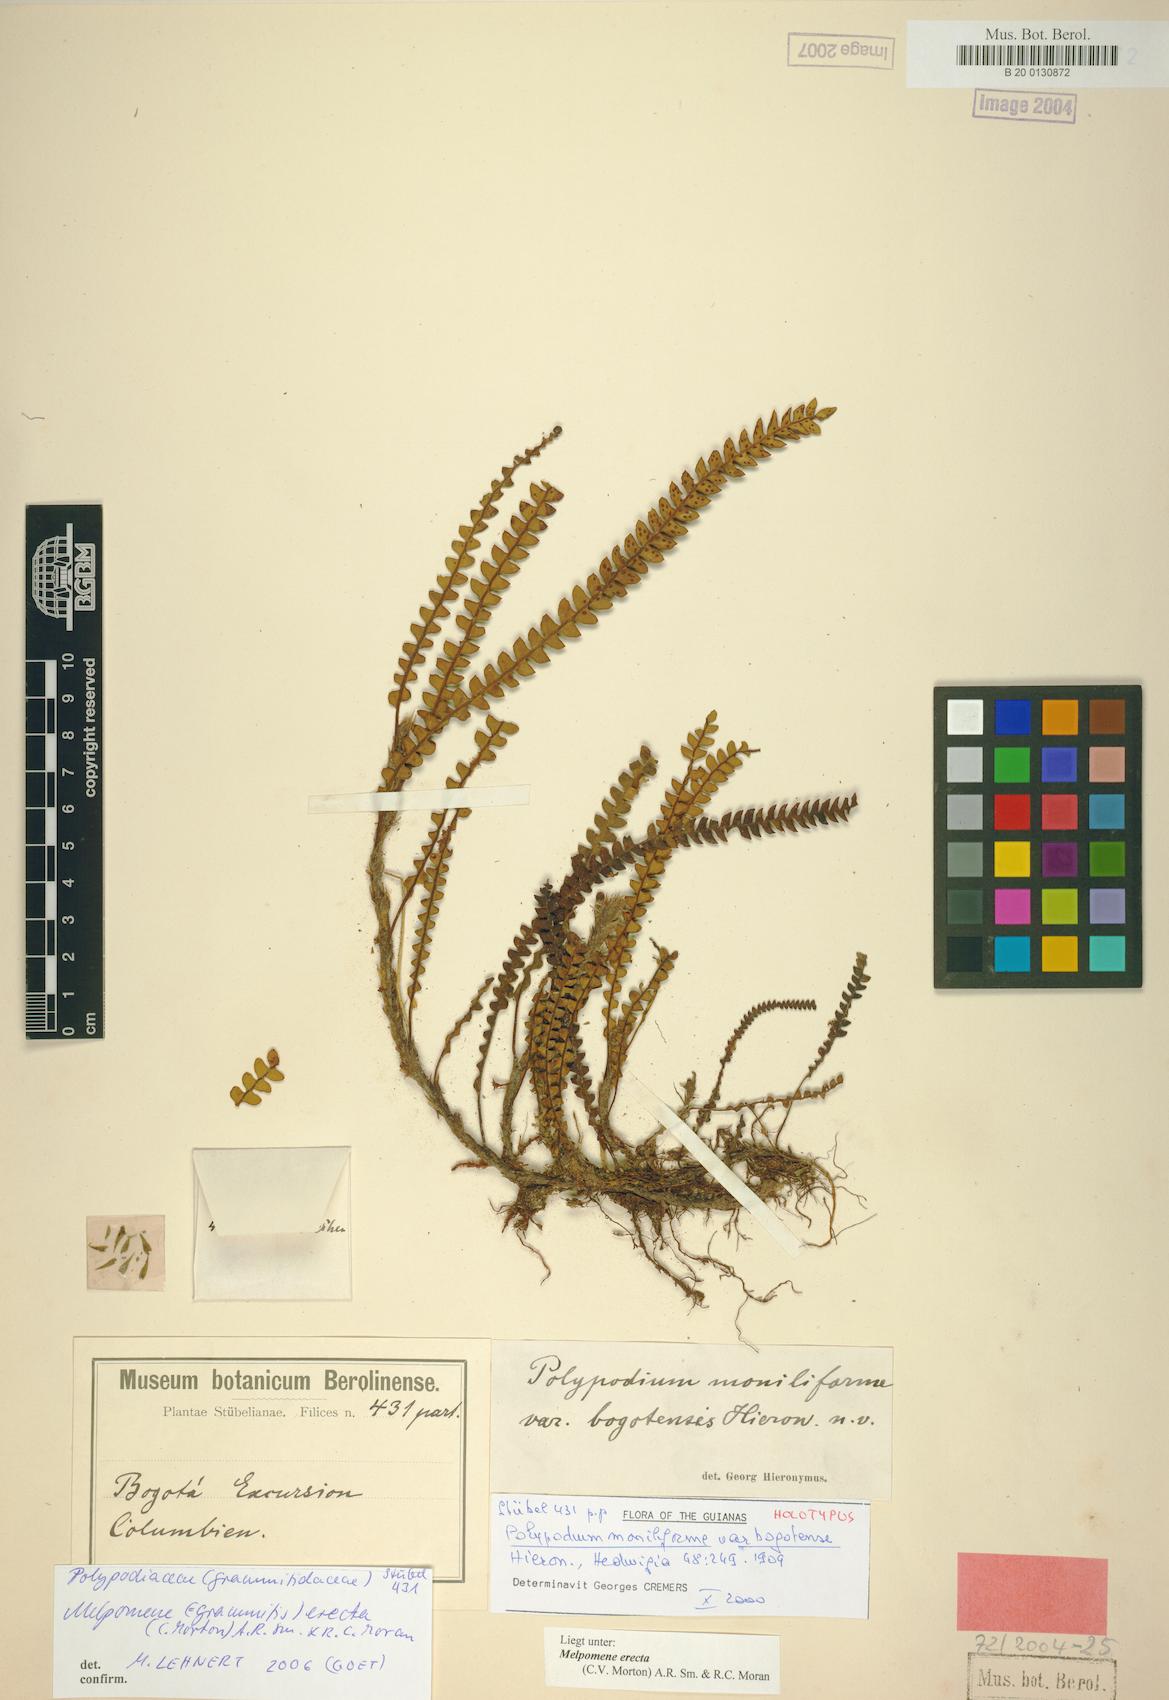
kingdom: Plantae
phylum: Tracheophyta
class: Polypodiopsida
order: Polypodiales
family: Polypodiaceae
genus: Melpomene
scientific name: Melpomene erecta
